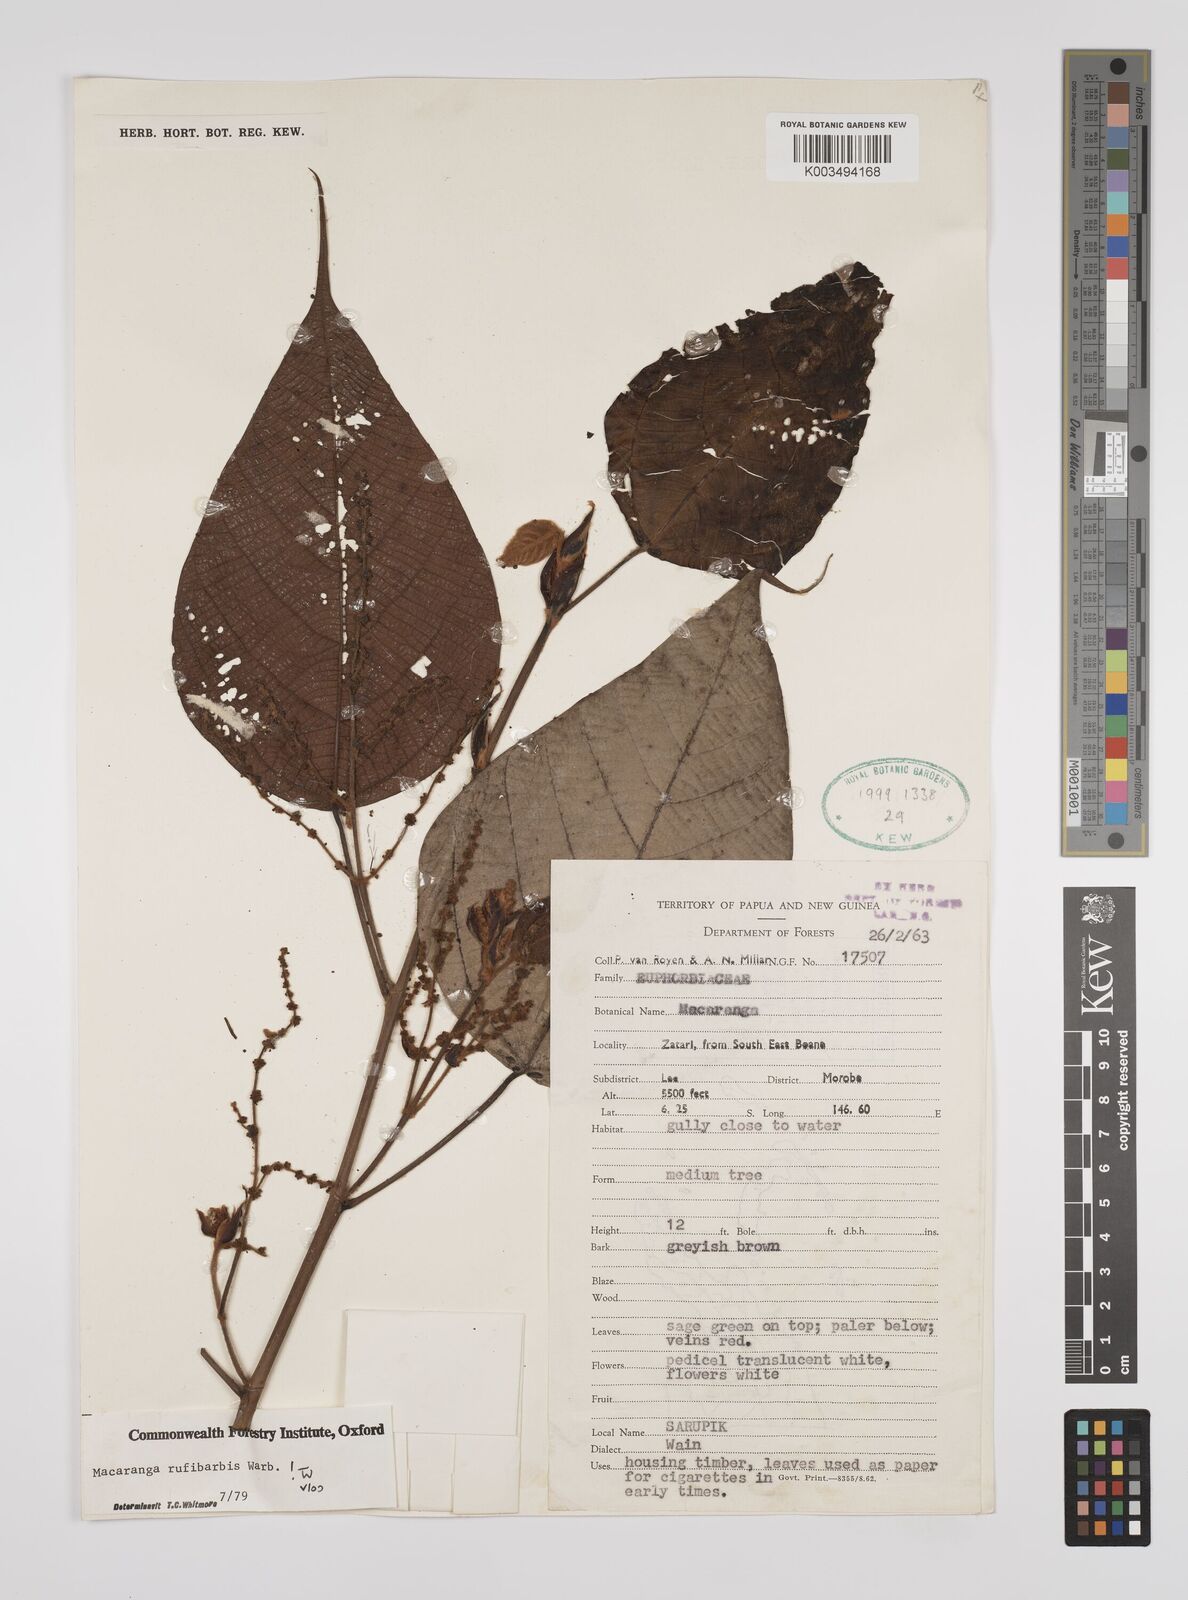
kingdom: Plantae
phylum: Tracheophyta
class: Magnoliopsida
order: Malpighiales
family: Euphorbiaceae
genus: Macaranga
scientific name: Macaranga rufibarbis
